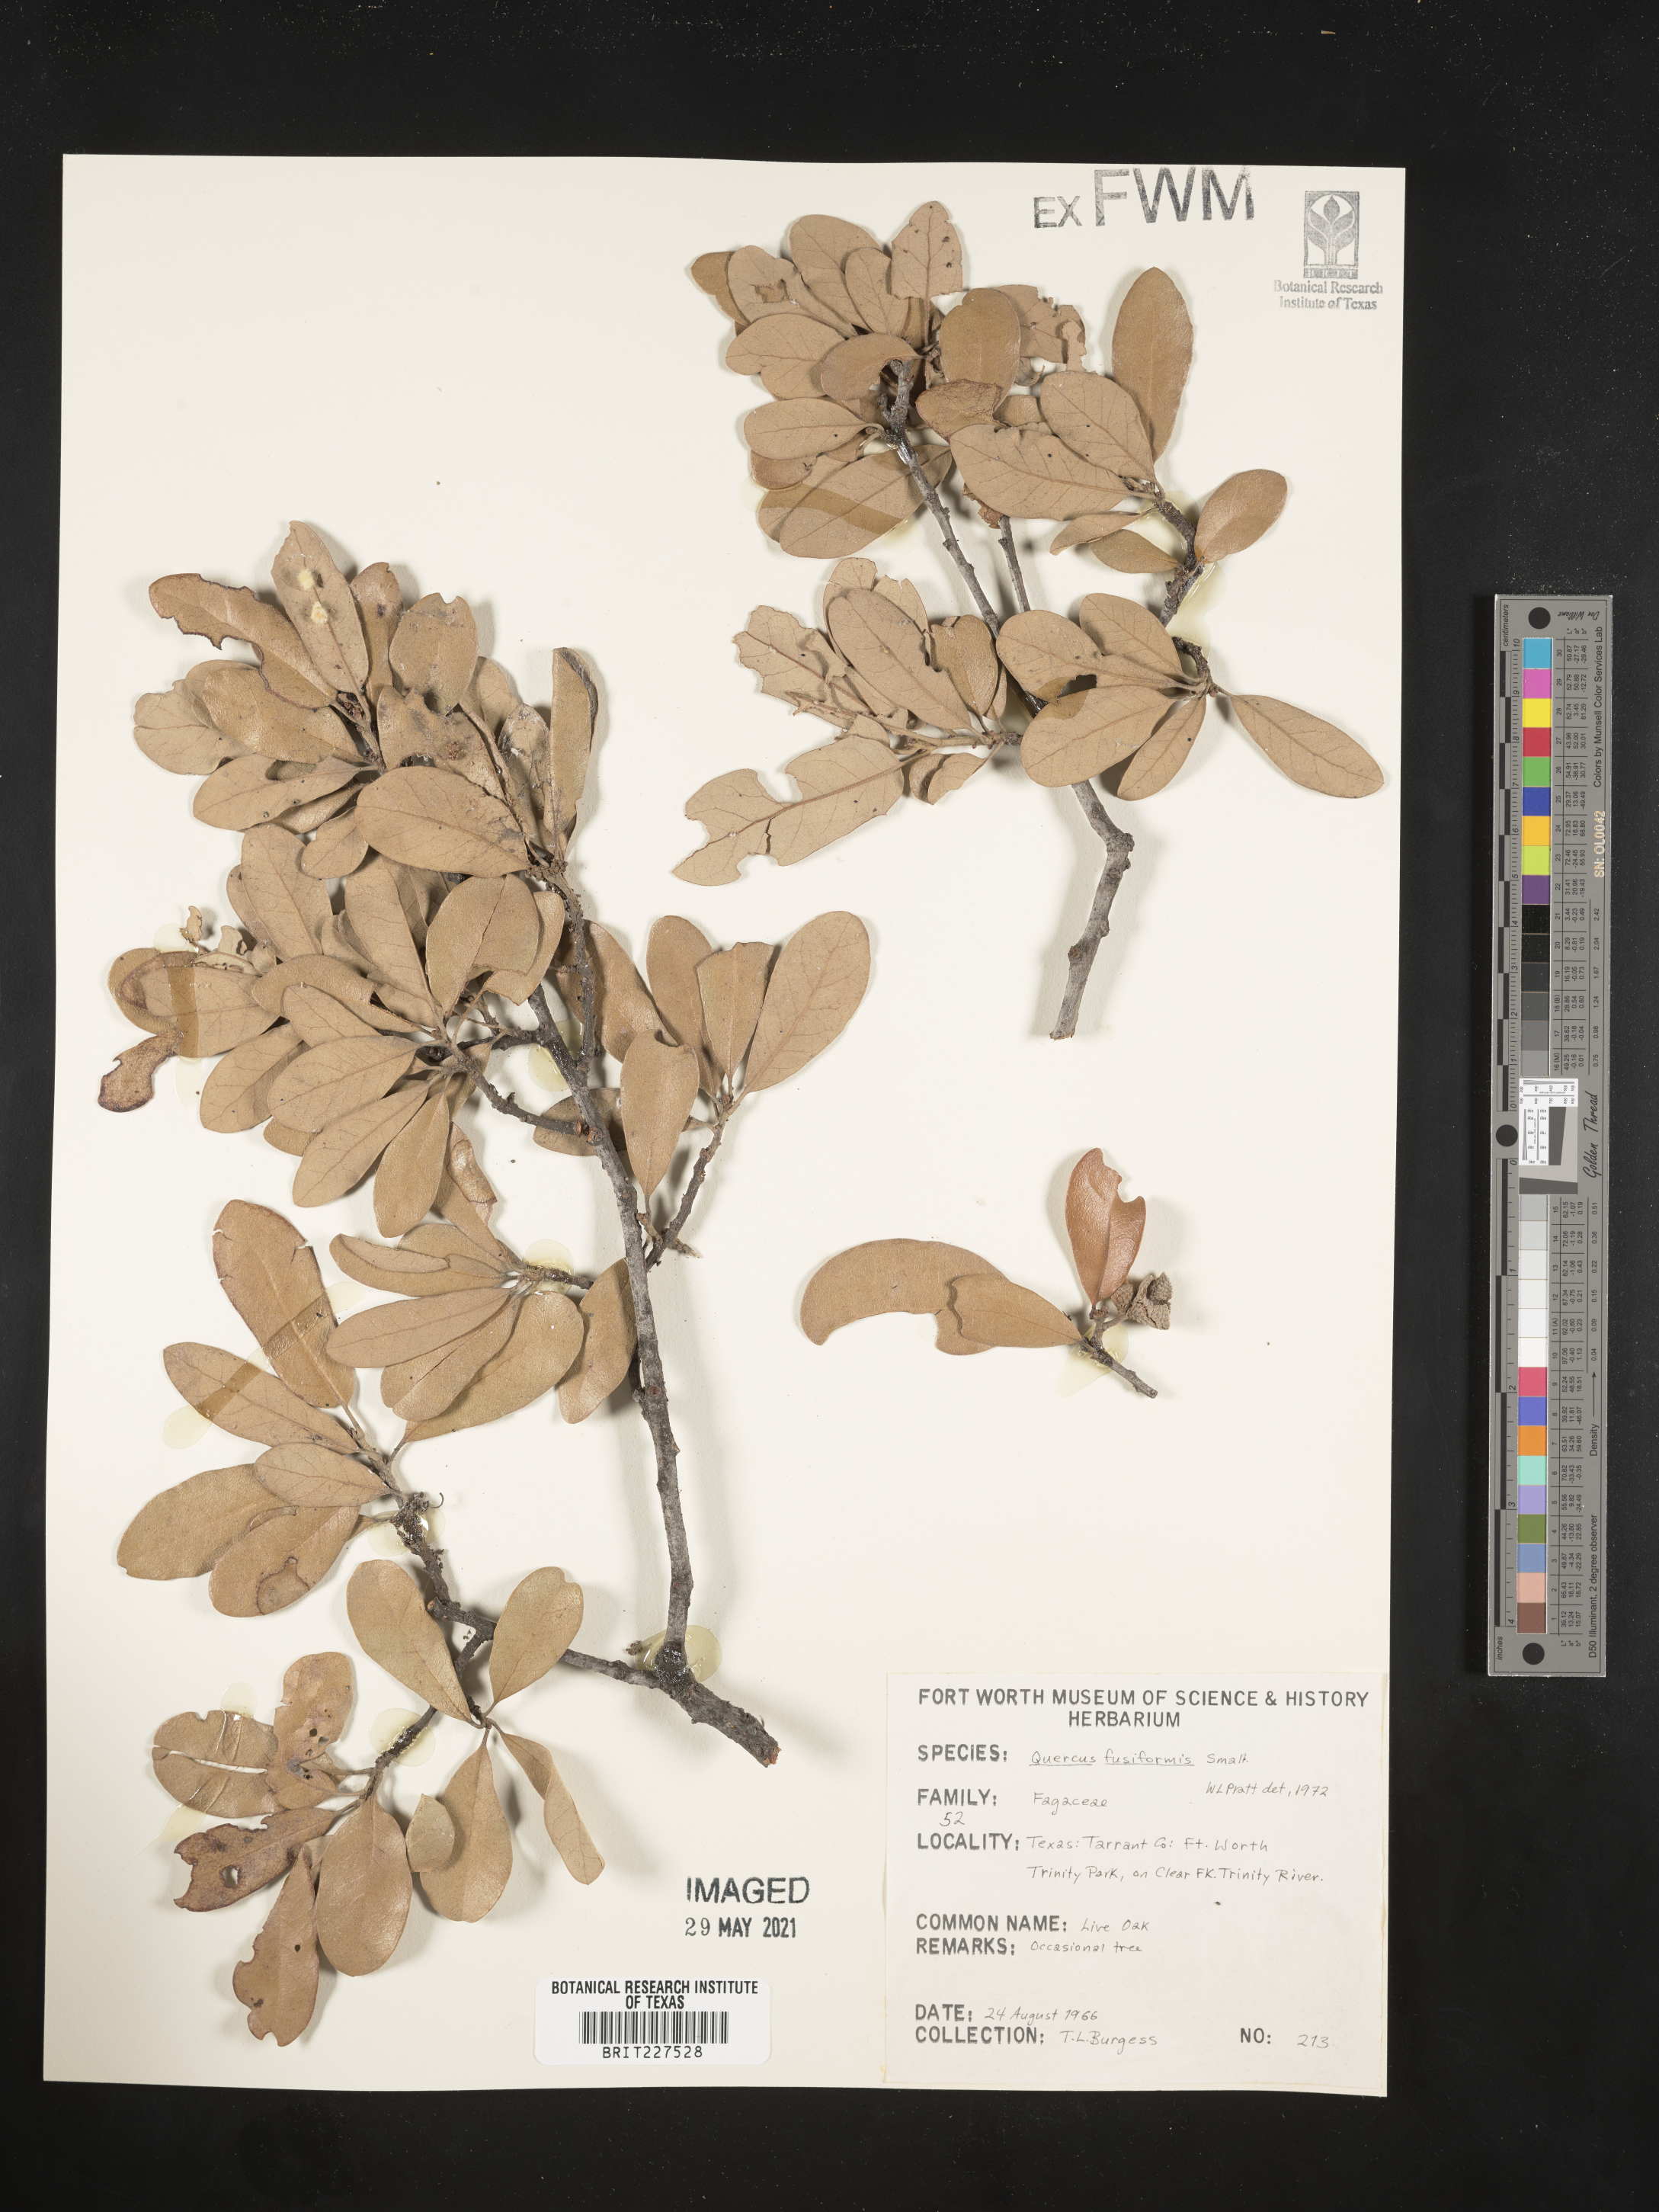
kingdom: Plantae
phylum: Tracheophyta
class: Magnoliopsida
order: Fagales
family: Fagaceae
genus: Quercus
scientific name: Quercus fusiformis
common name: Texas live oak
